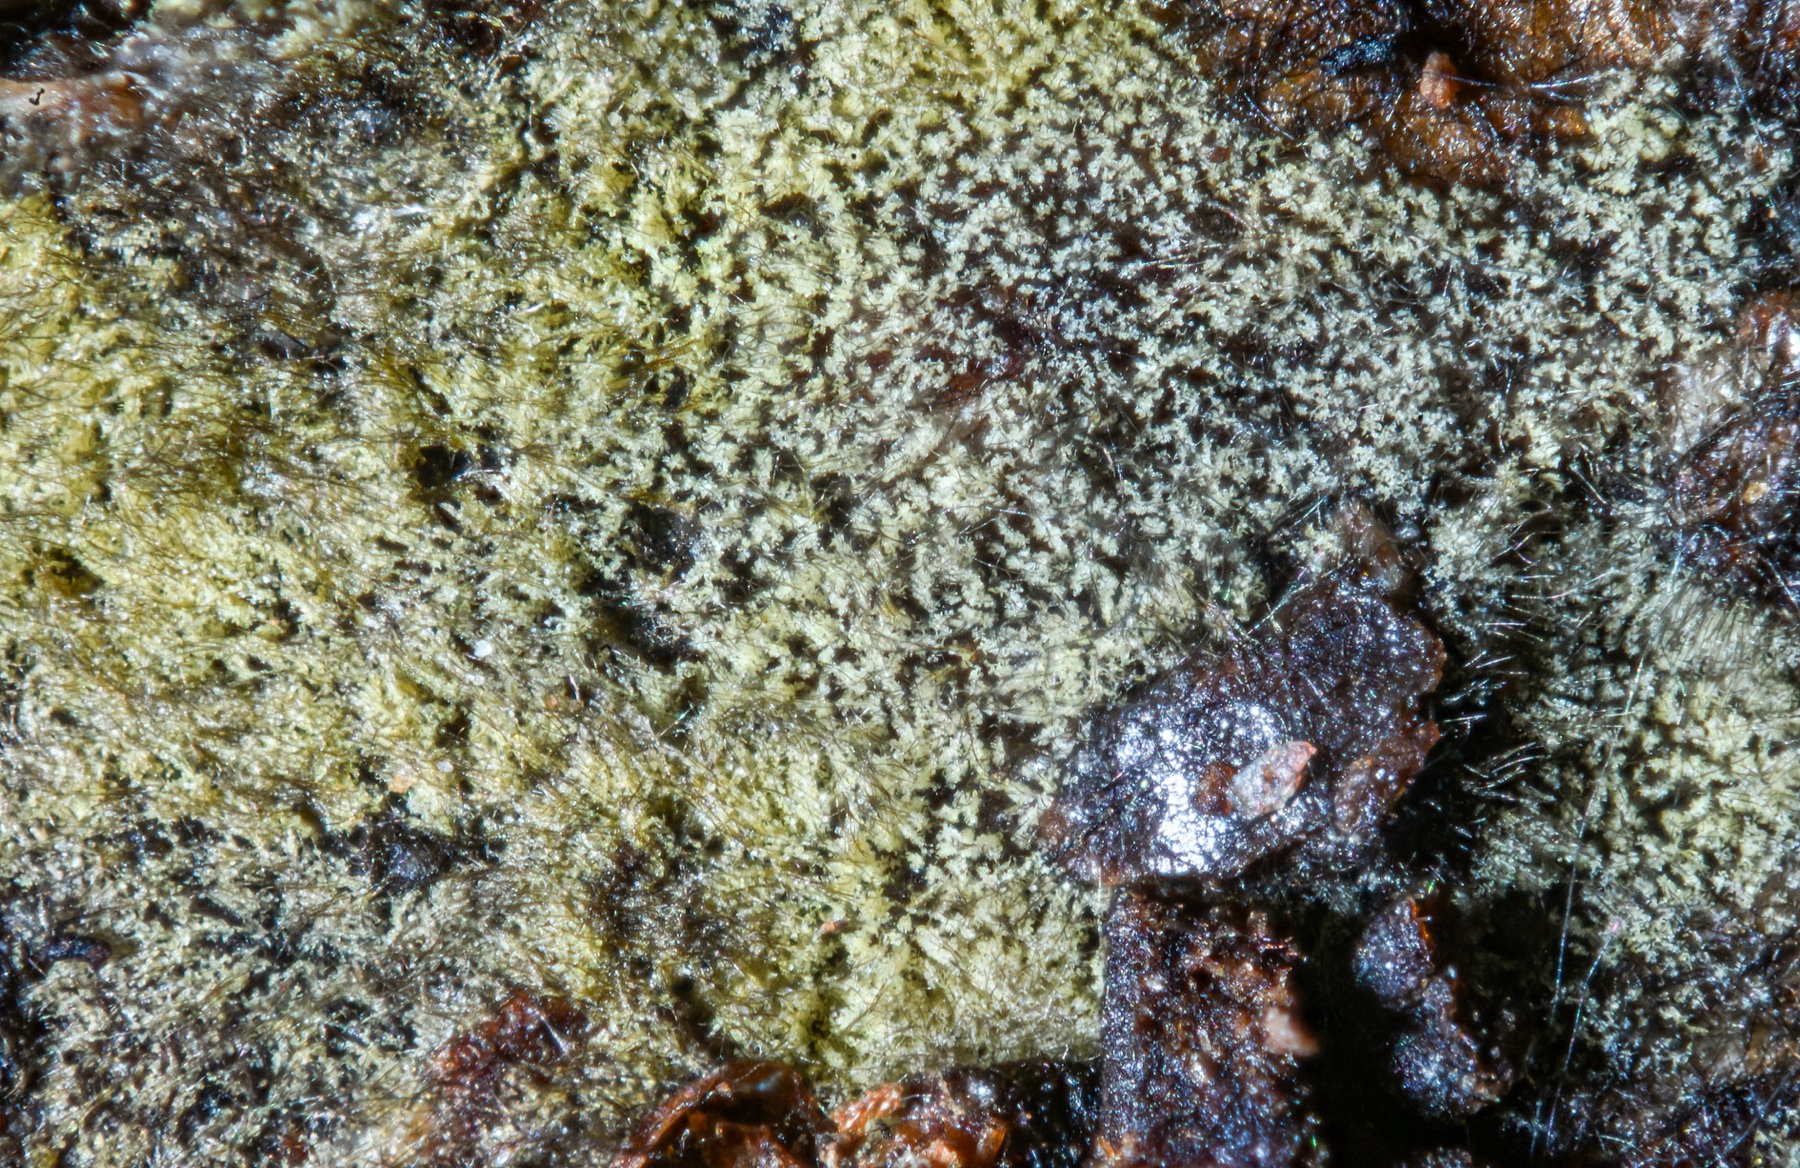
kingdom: Fungi
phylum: Ascomycota
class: Dothideomycetes
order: Tubeufiales
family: Tubeufiaceae
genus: Tubeufia
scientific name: Tubeufia cerea
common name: gulbrun tyksækkrukke
